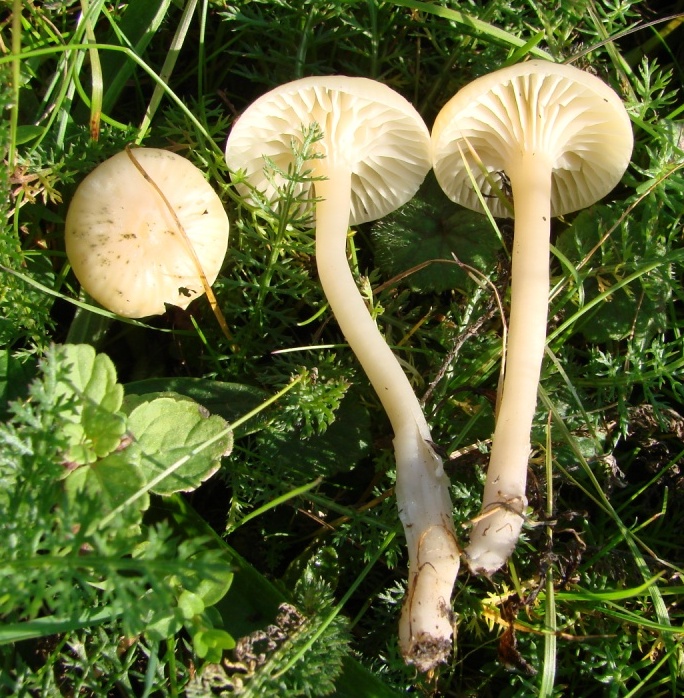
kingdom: Fungi
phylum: Basidiomycota
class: Agaricomycetes
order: Agaricales
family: Hygrophoraceae
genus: Cuphophyllus
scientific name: Cuphophyllus virgineus
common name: snehvid vokshat
